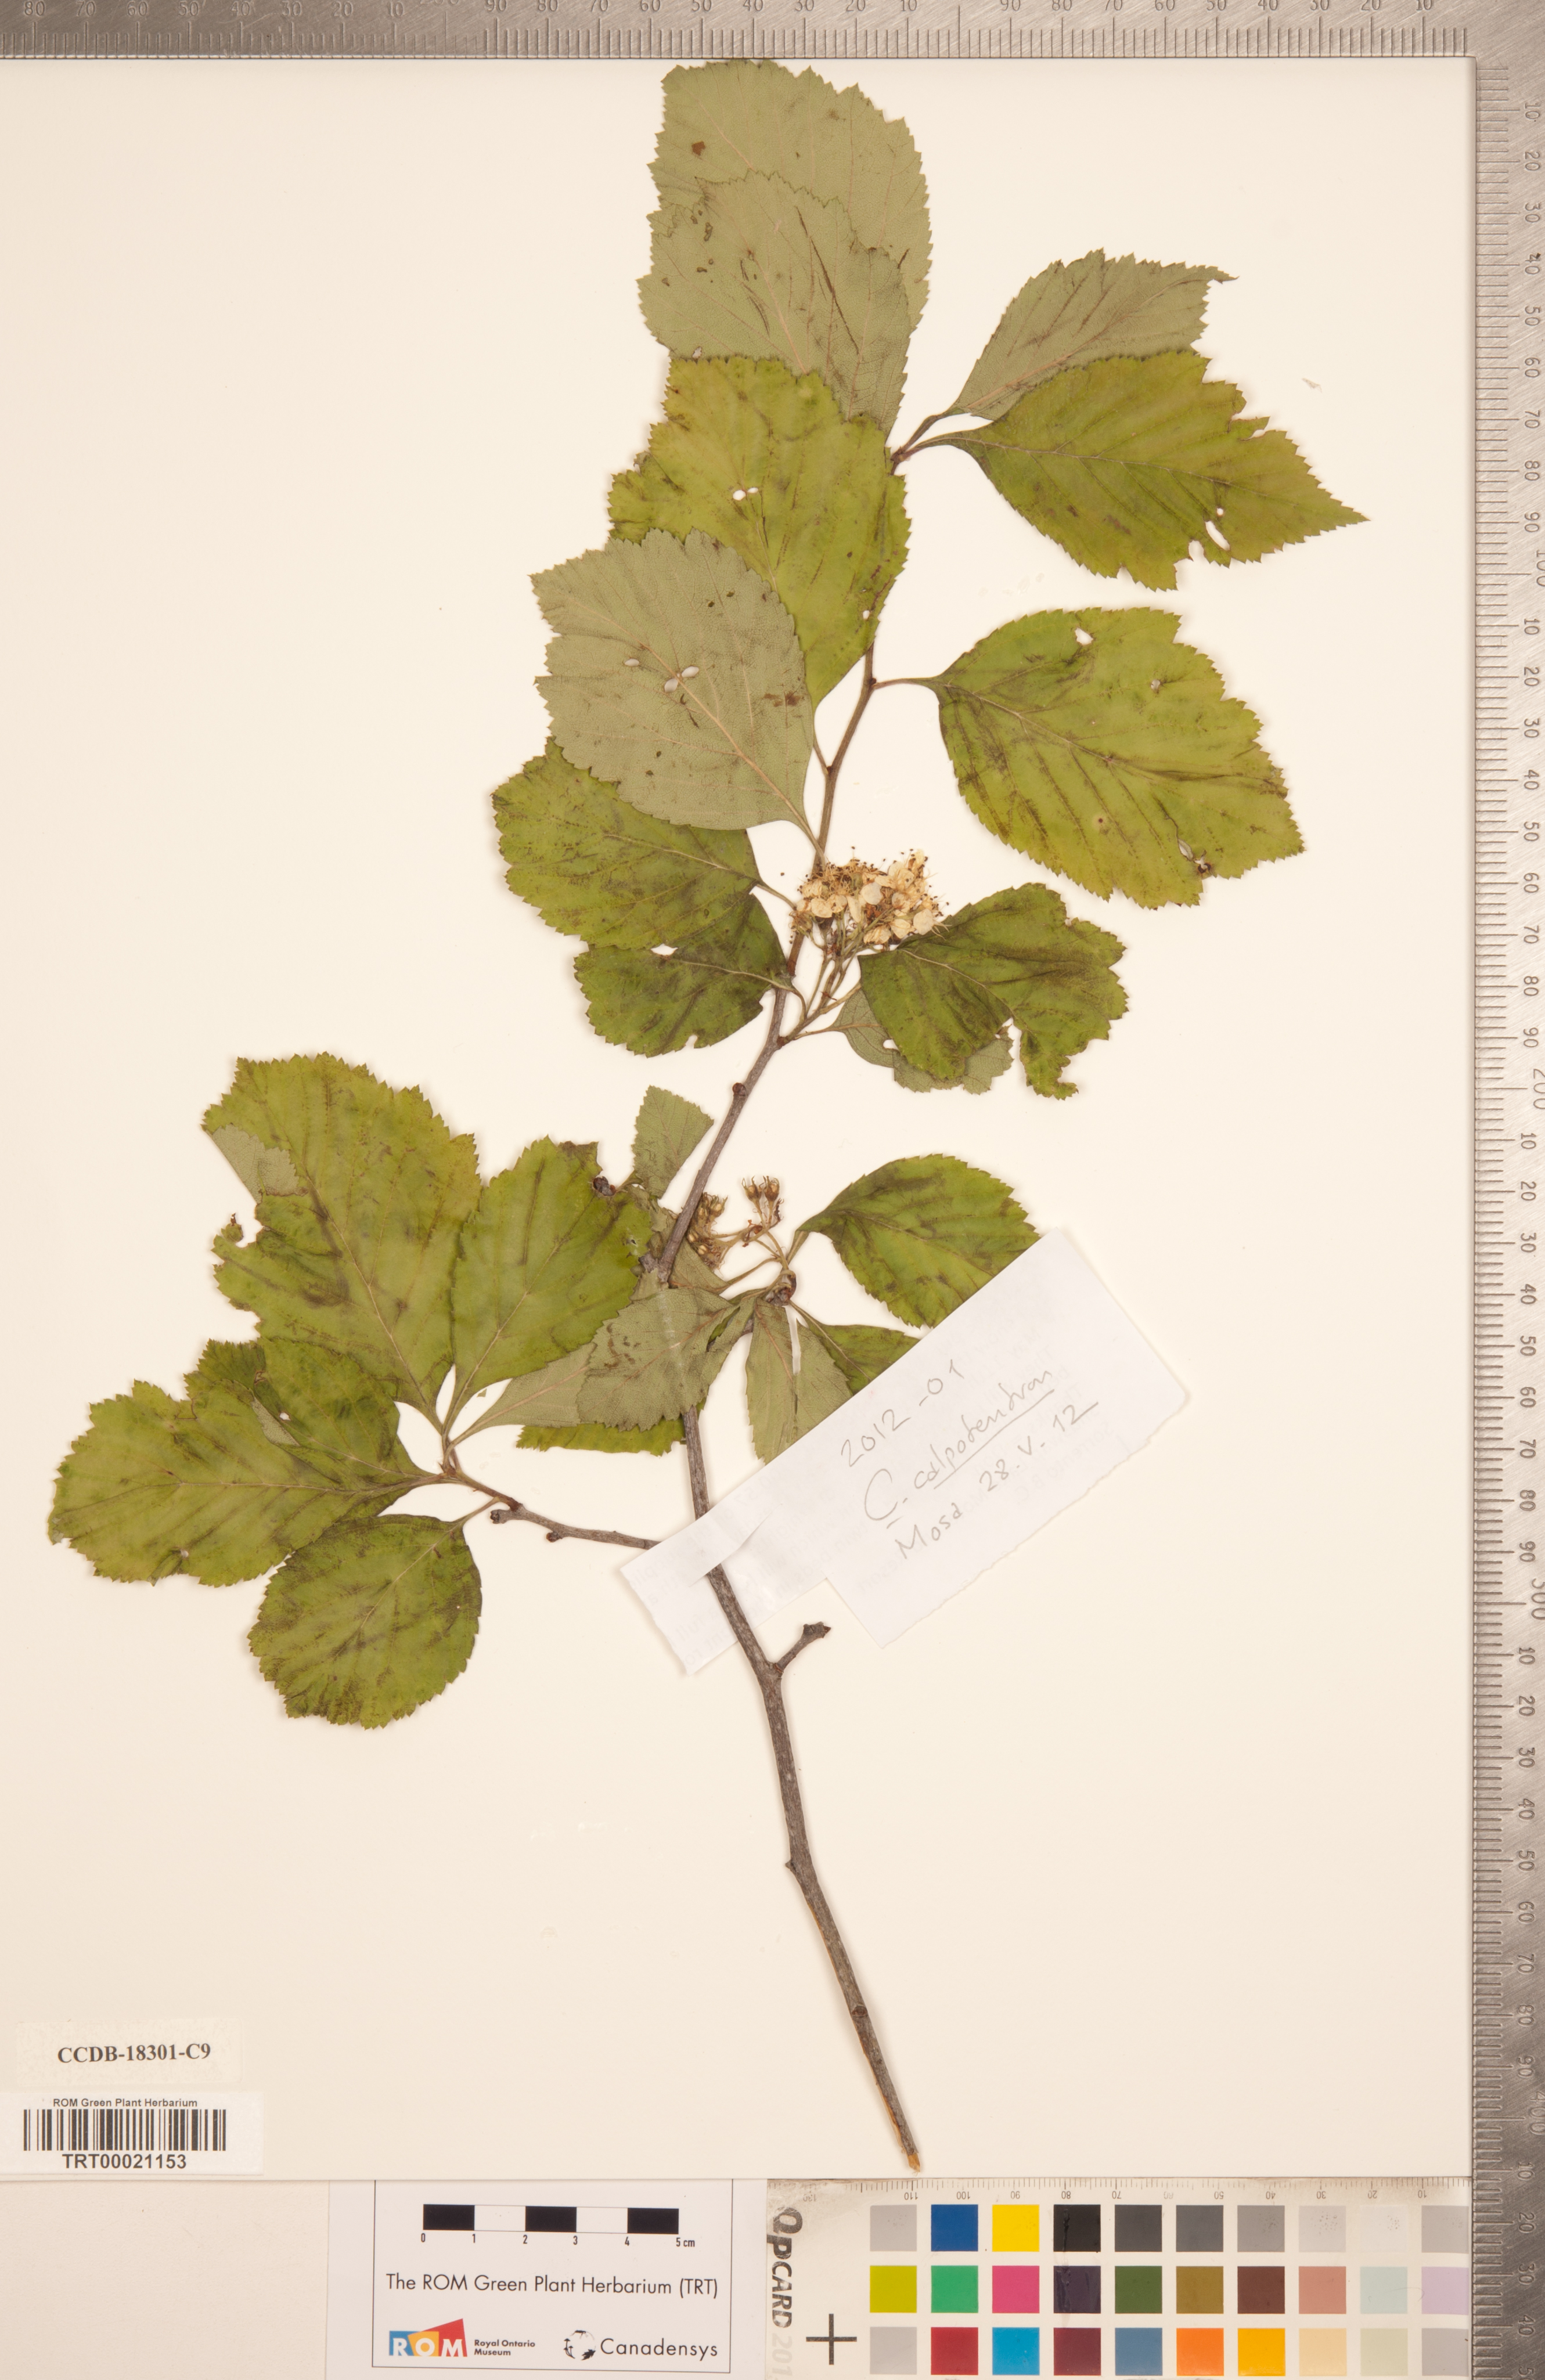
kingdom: Plantae
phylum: Tracheophyta
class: Magnoliopsida
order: Rosales
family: Rosaceae
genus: Crataegus
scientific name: Crataegus calpodendron
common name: Pear hawthorn
